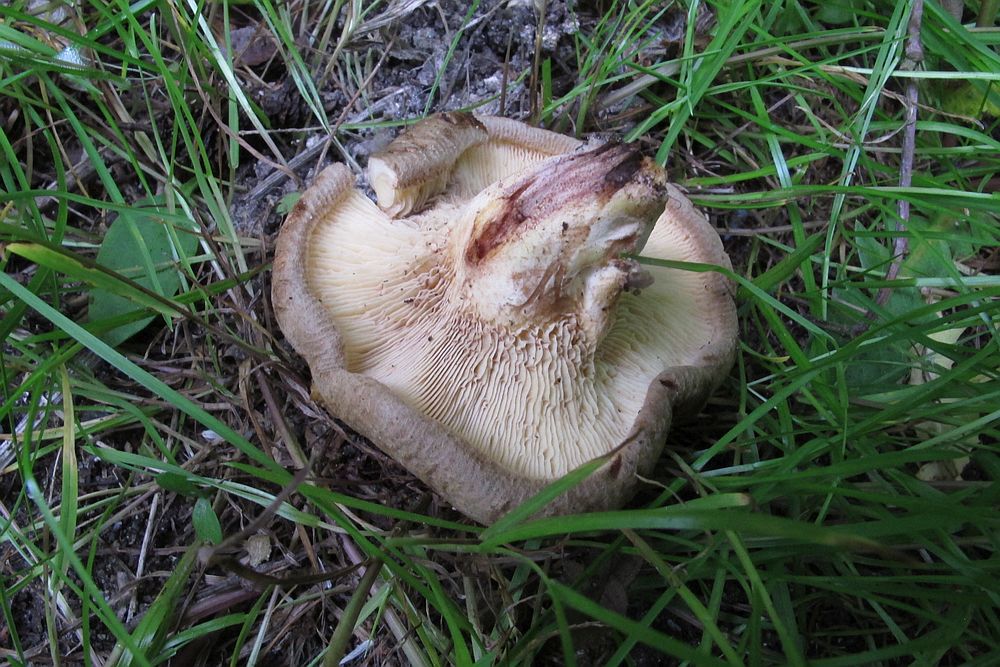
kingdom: Fungi
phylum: Basidiomycota
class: Agaricomycetes
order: Boletales
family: Paxillaceae
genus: Paxillus
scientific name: Paxillus rubicundulus
